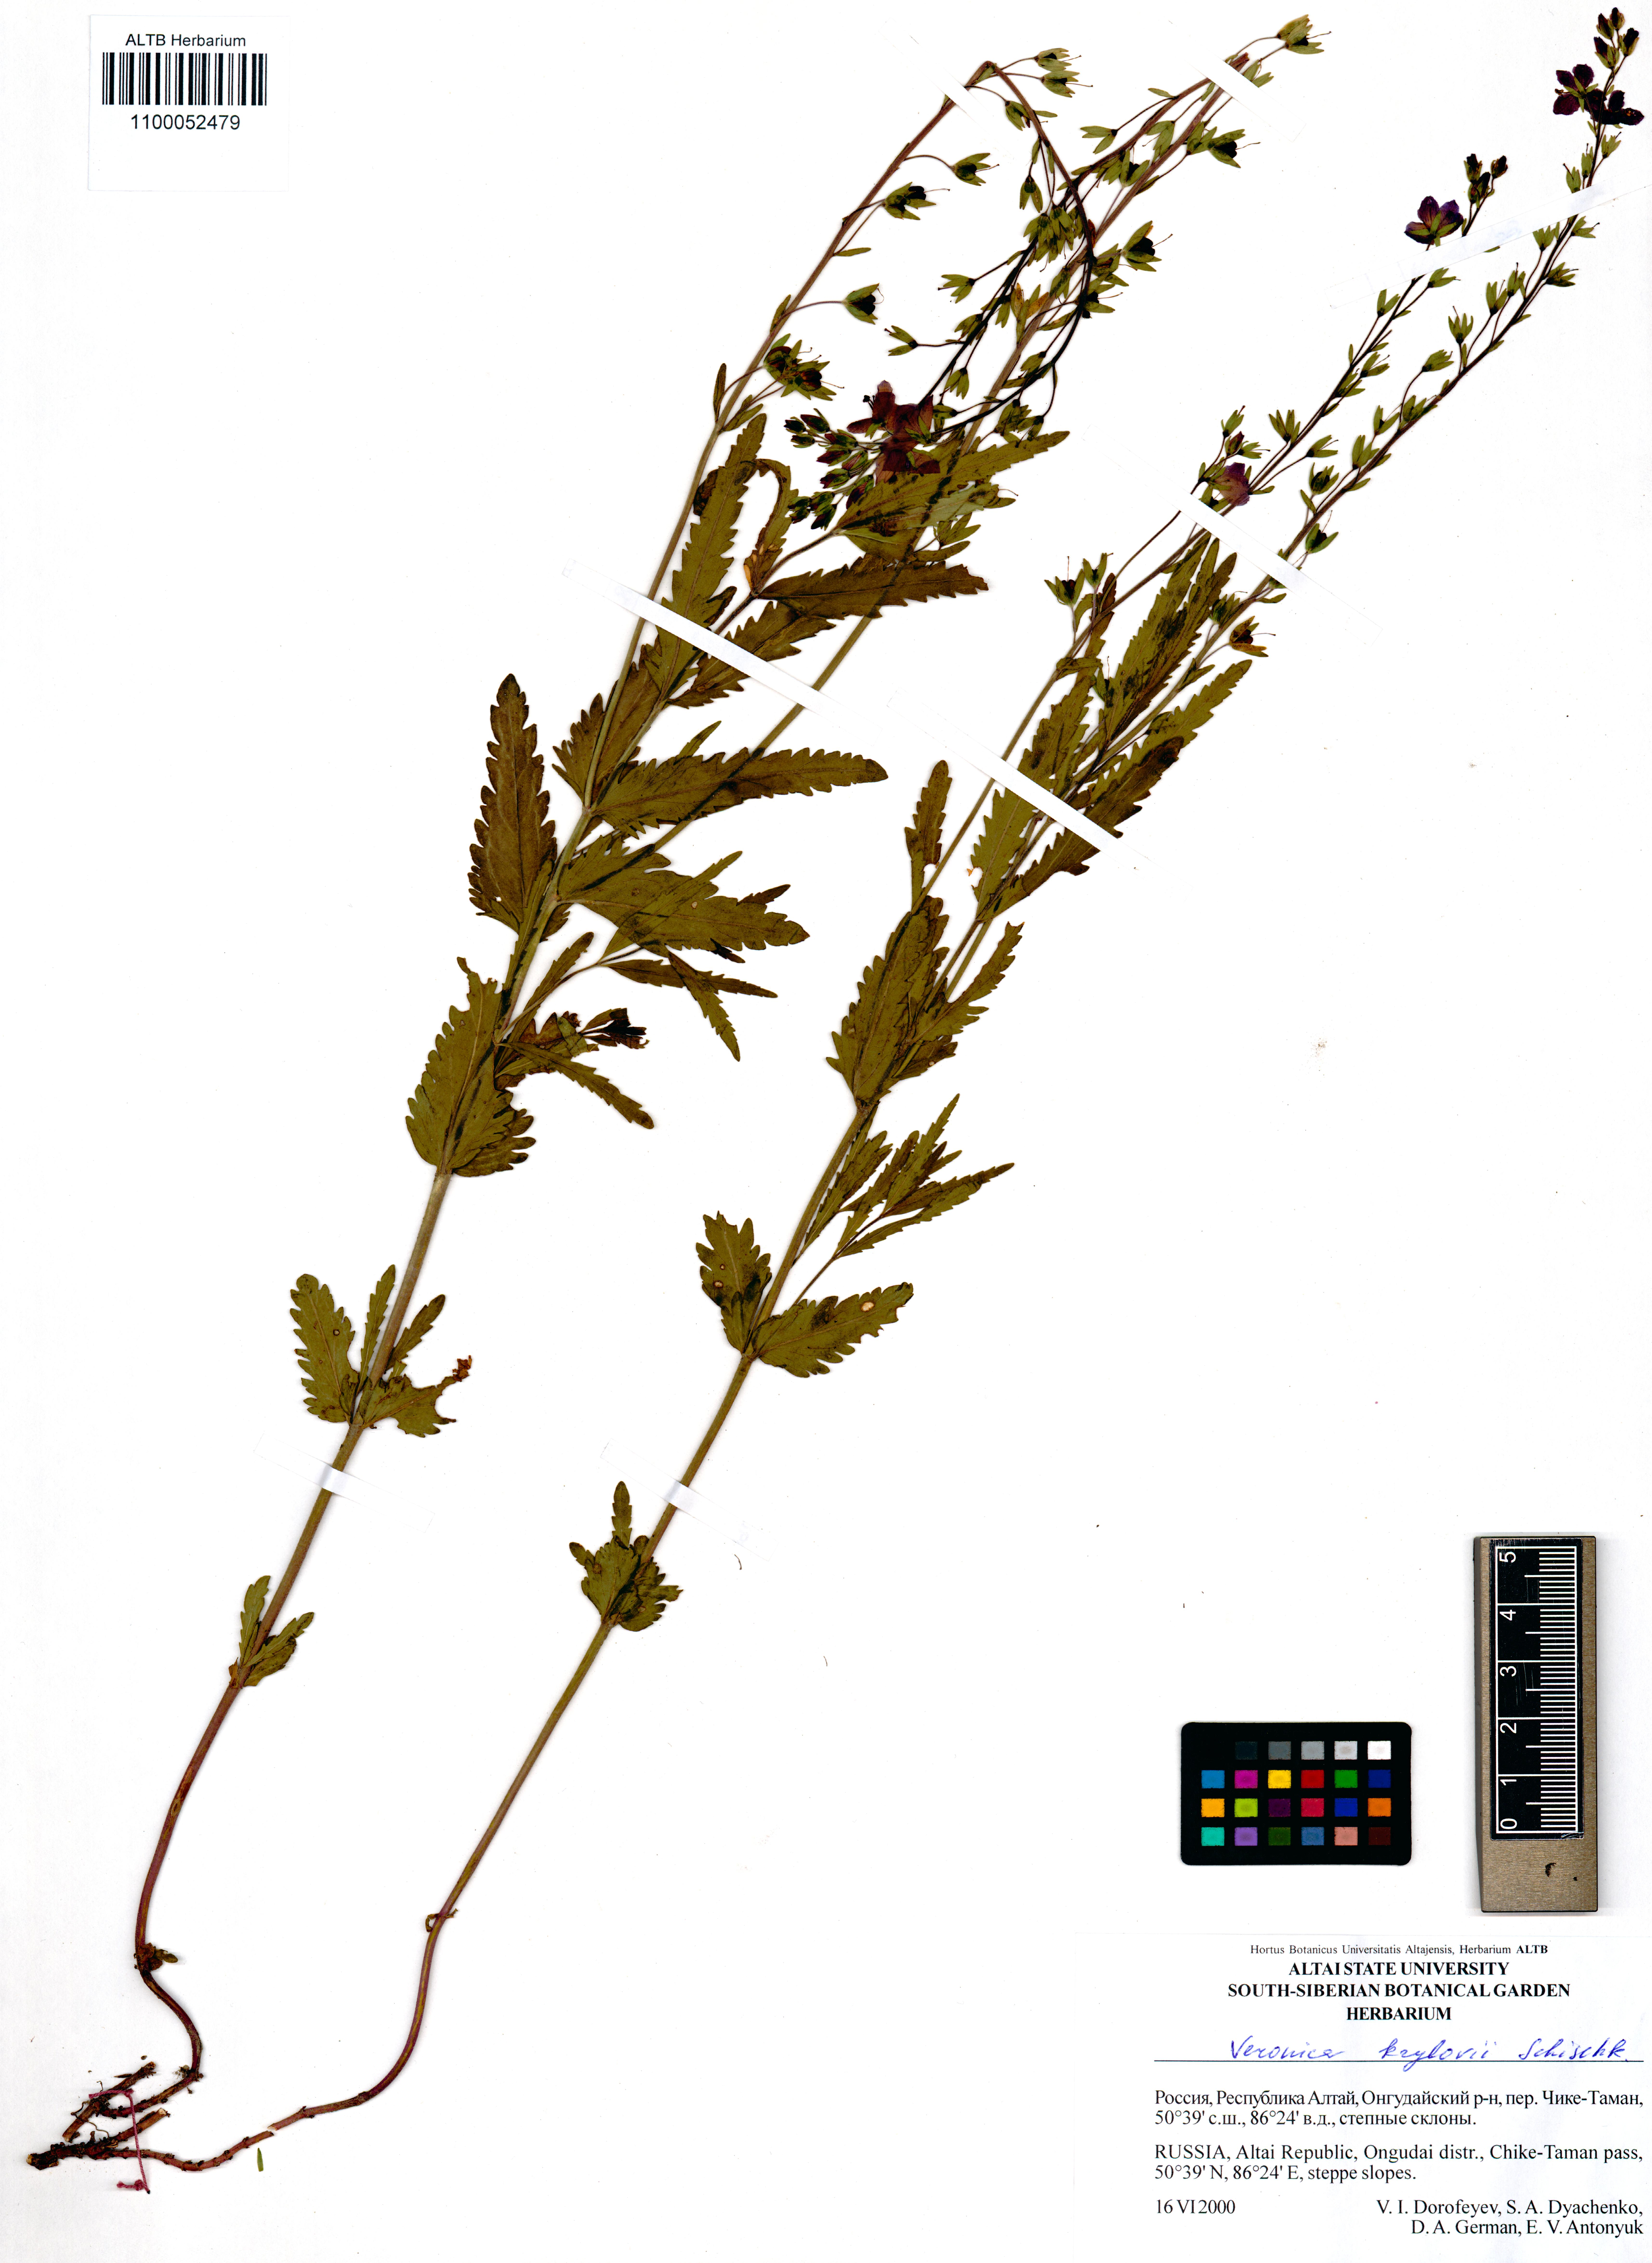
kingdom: Plantae
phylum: Tracheophyta
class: Magnoliopsida
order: Lamiales
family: Plantaginaceae
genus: Veronica
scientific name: Veronica krylovii
